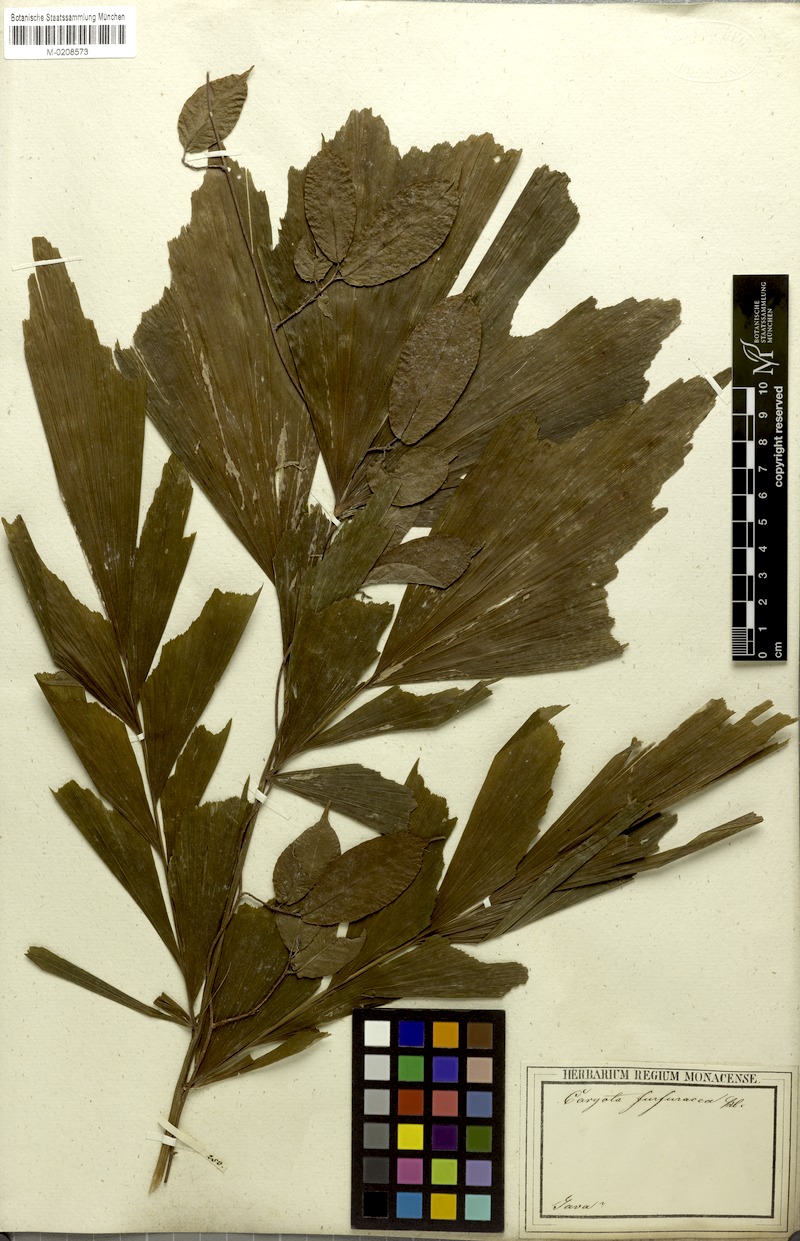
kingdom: Plantae
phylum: Tracheophyta
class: Liliopsida
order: Arecales
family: Arecaceae
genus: Caryota
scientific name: Caryota mitis
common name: Burmese fishtail palm
